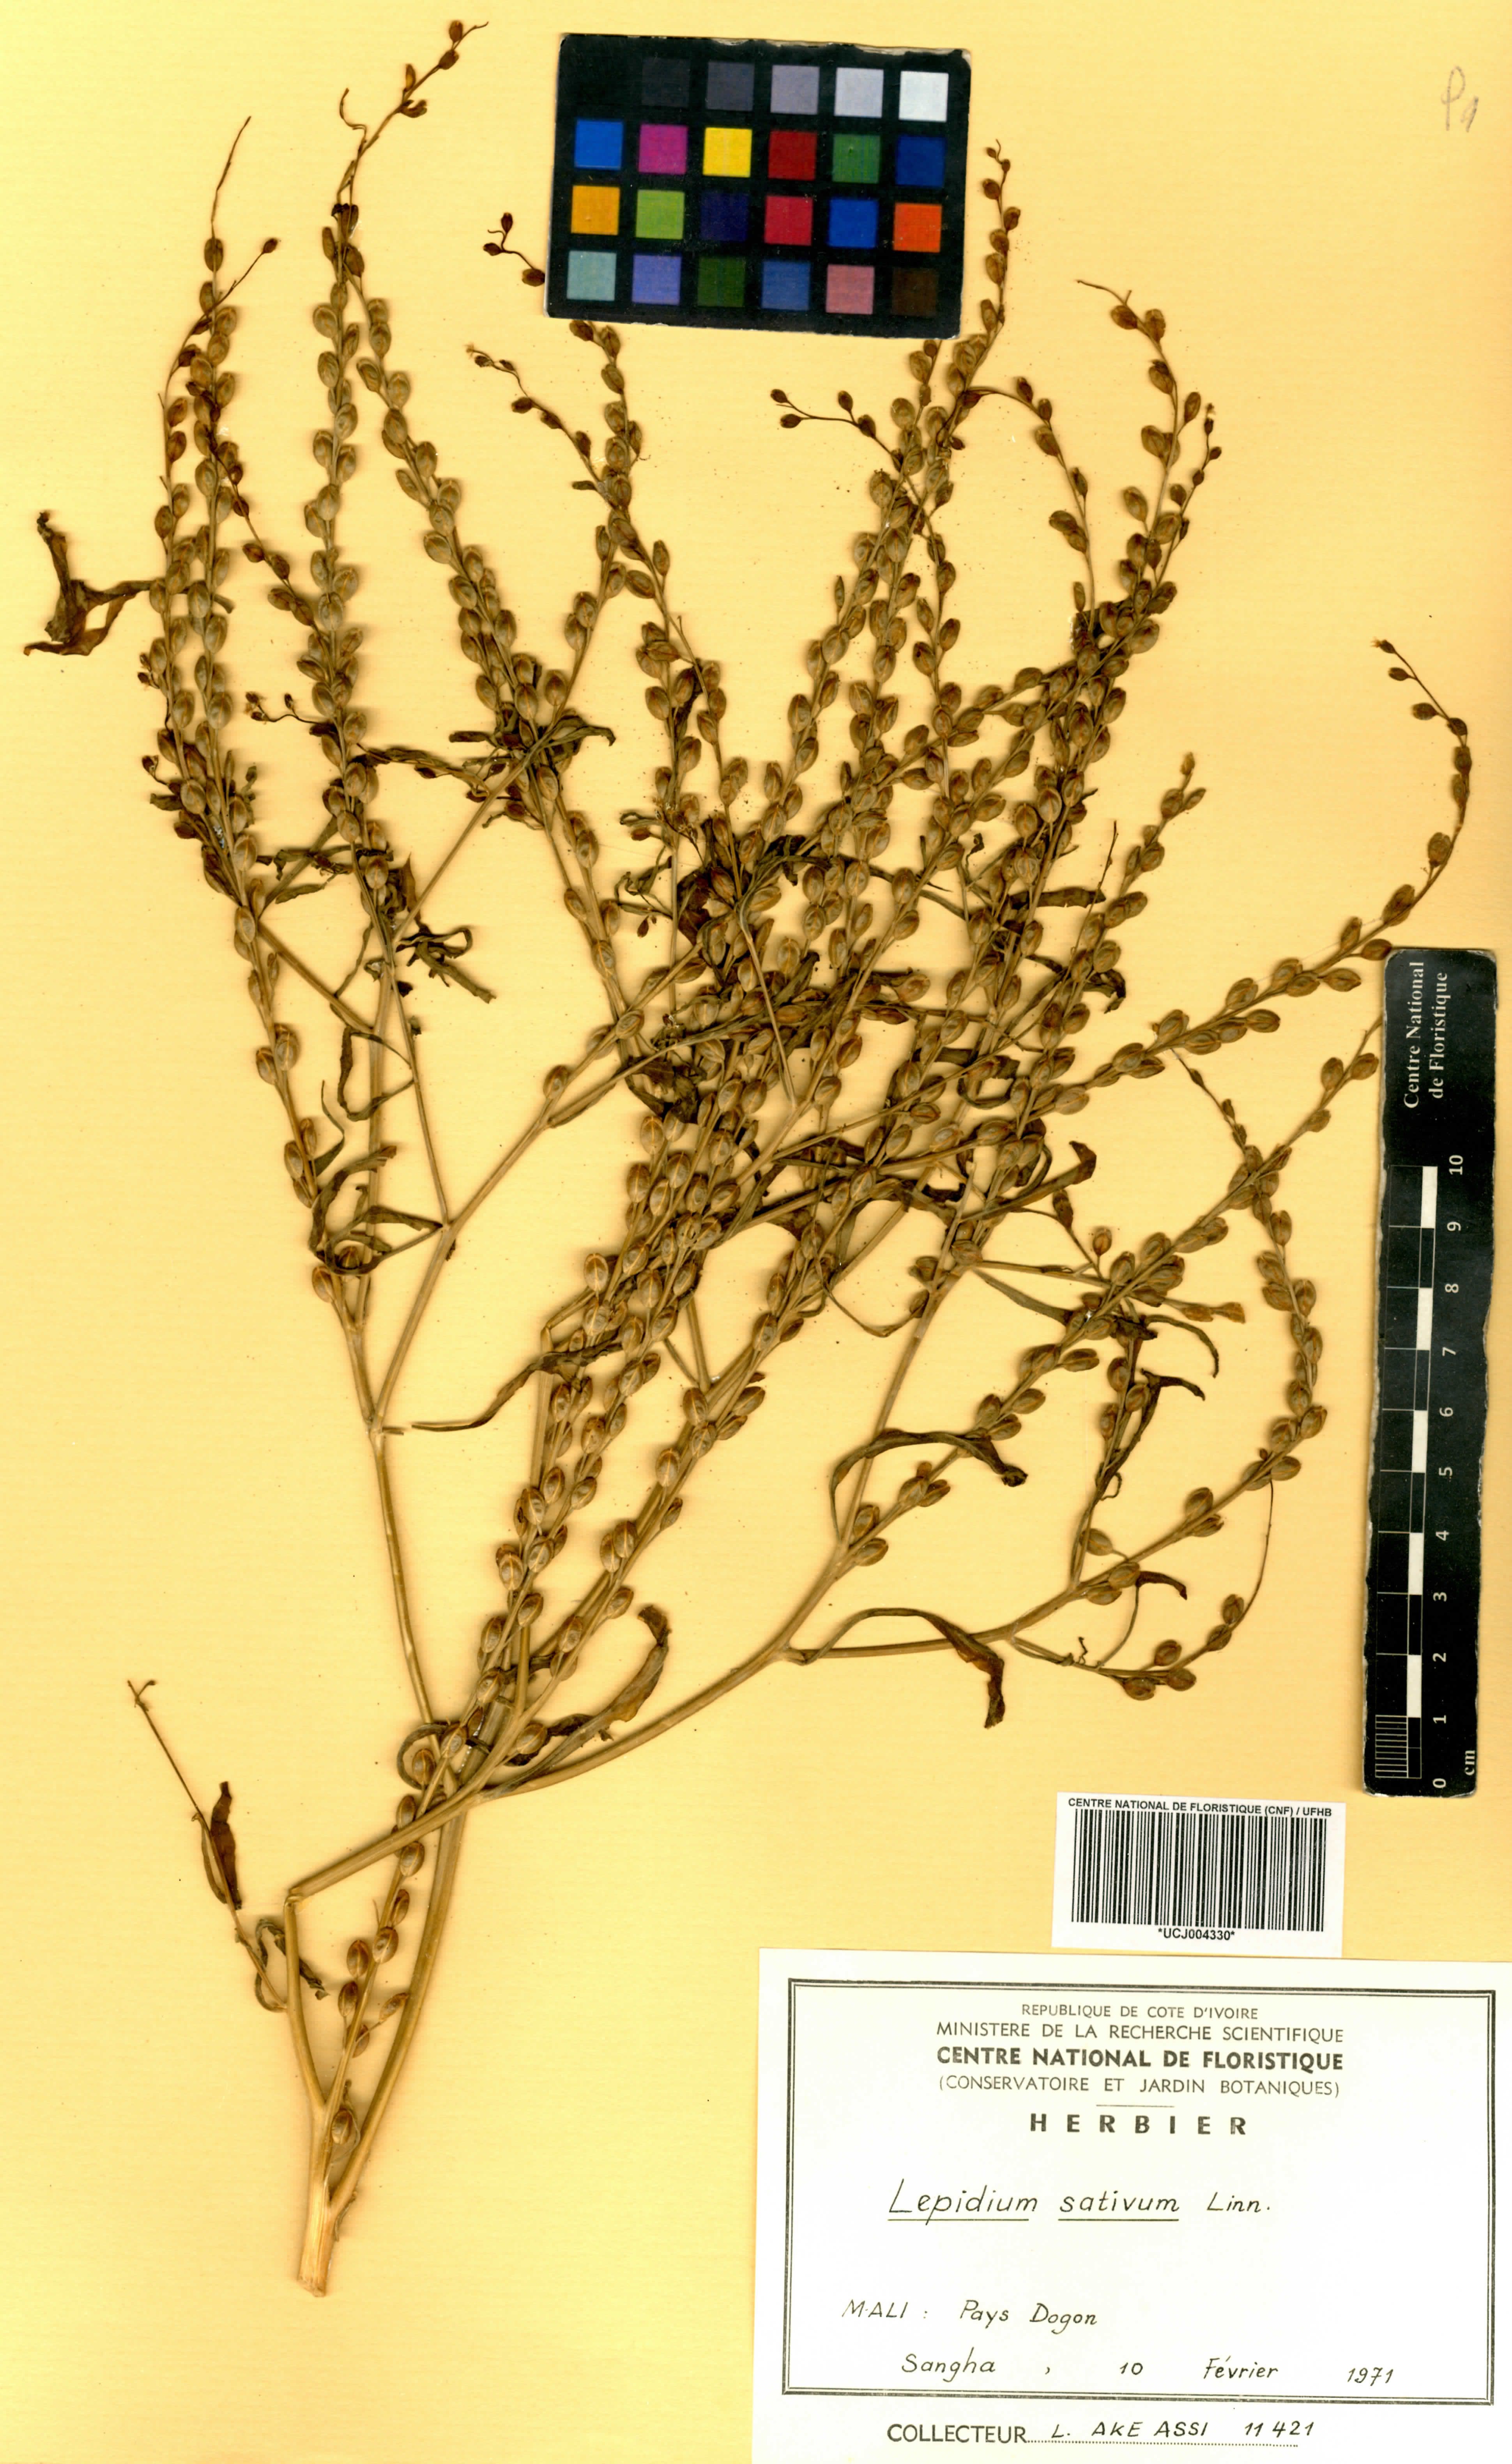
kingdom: Plantae
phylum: Tracheophyta
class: Magnoliopsida
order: Brassicales
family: Brassicaceae
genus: Lepidium
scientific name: Lepidium sativum
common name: Garden cress
